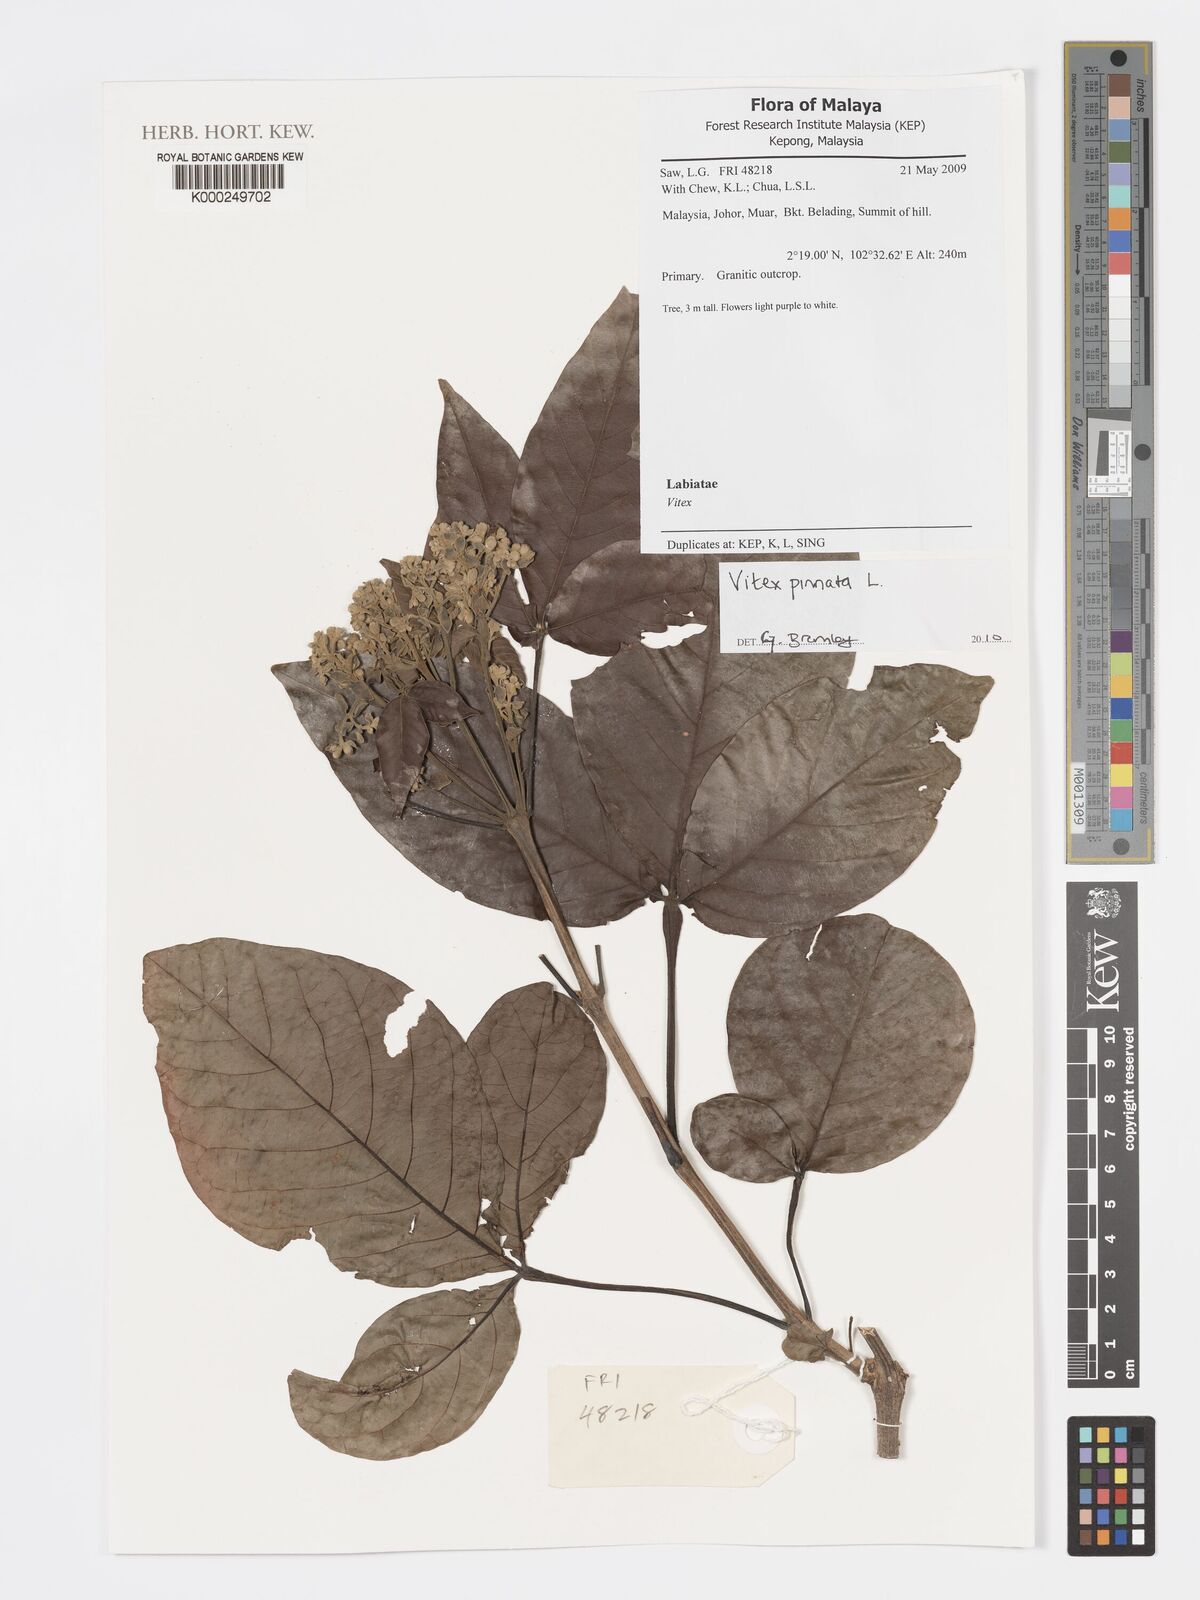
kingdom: Plantae
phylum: Tracheophyta
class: Magnoliopsida
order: Lamiales
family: Lamiaceae
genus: Vitex
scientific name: Vitex pinnata
